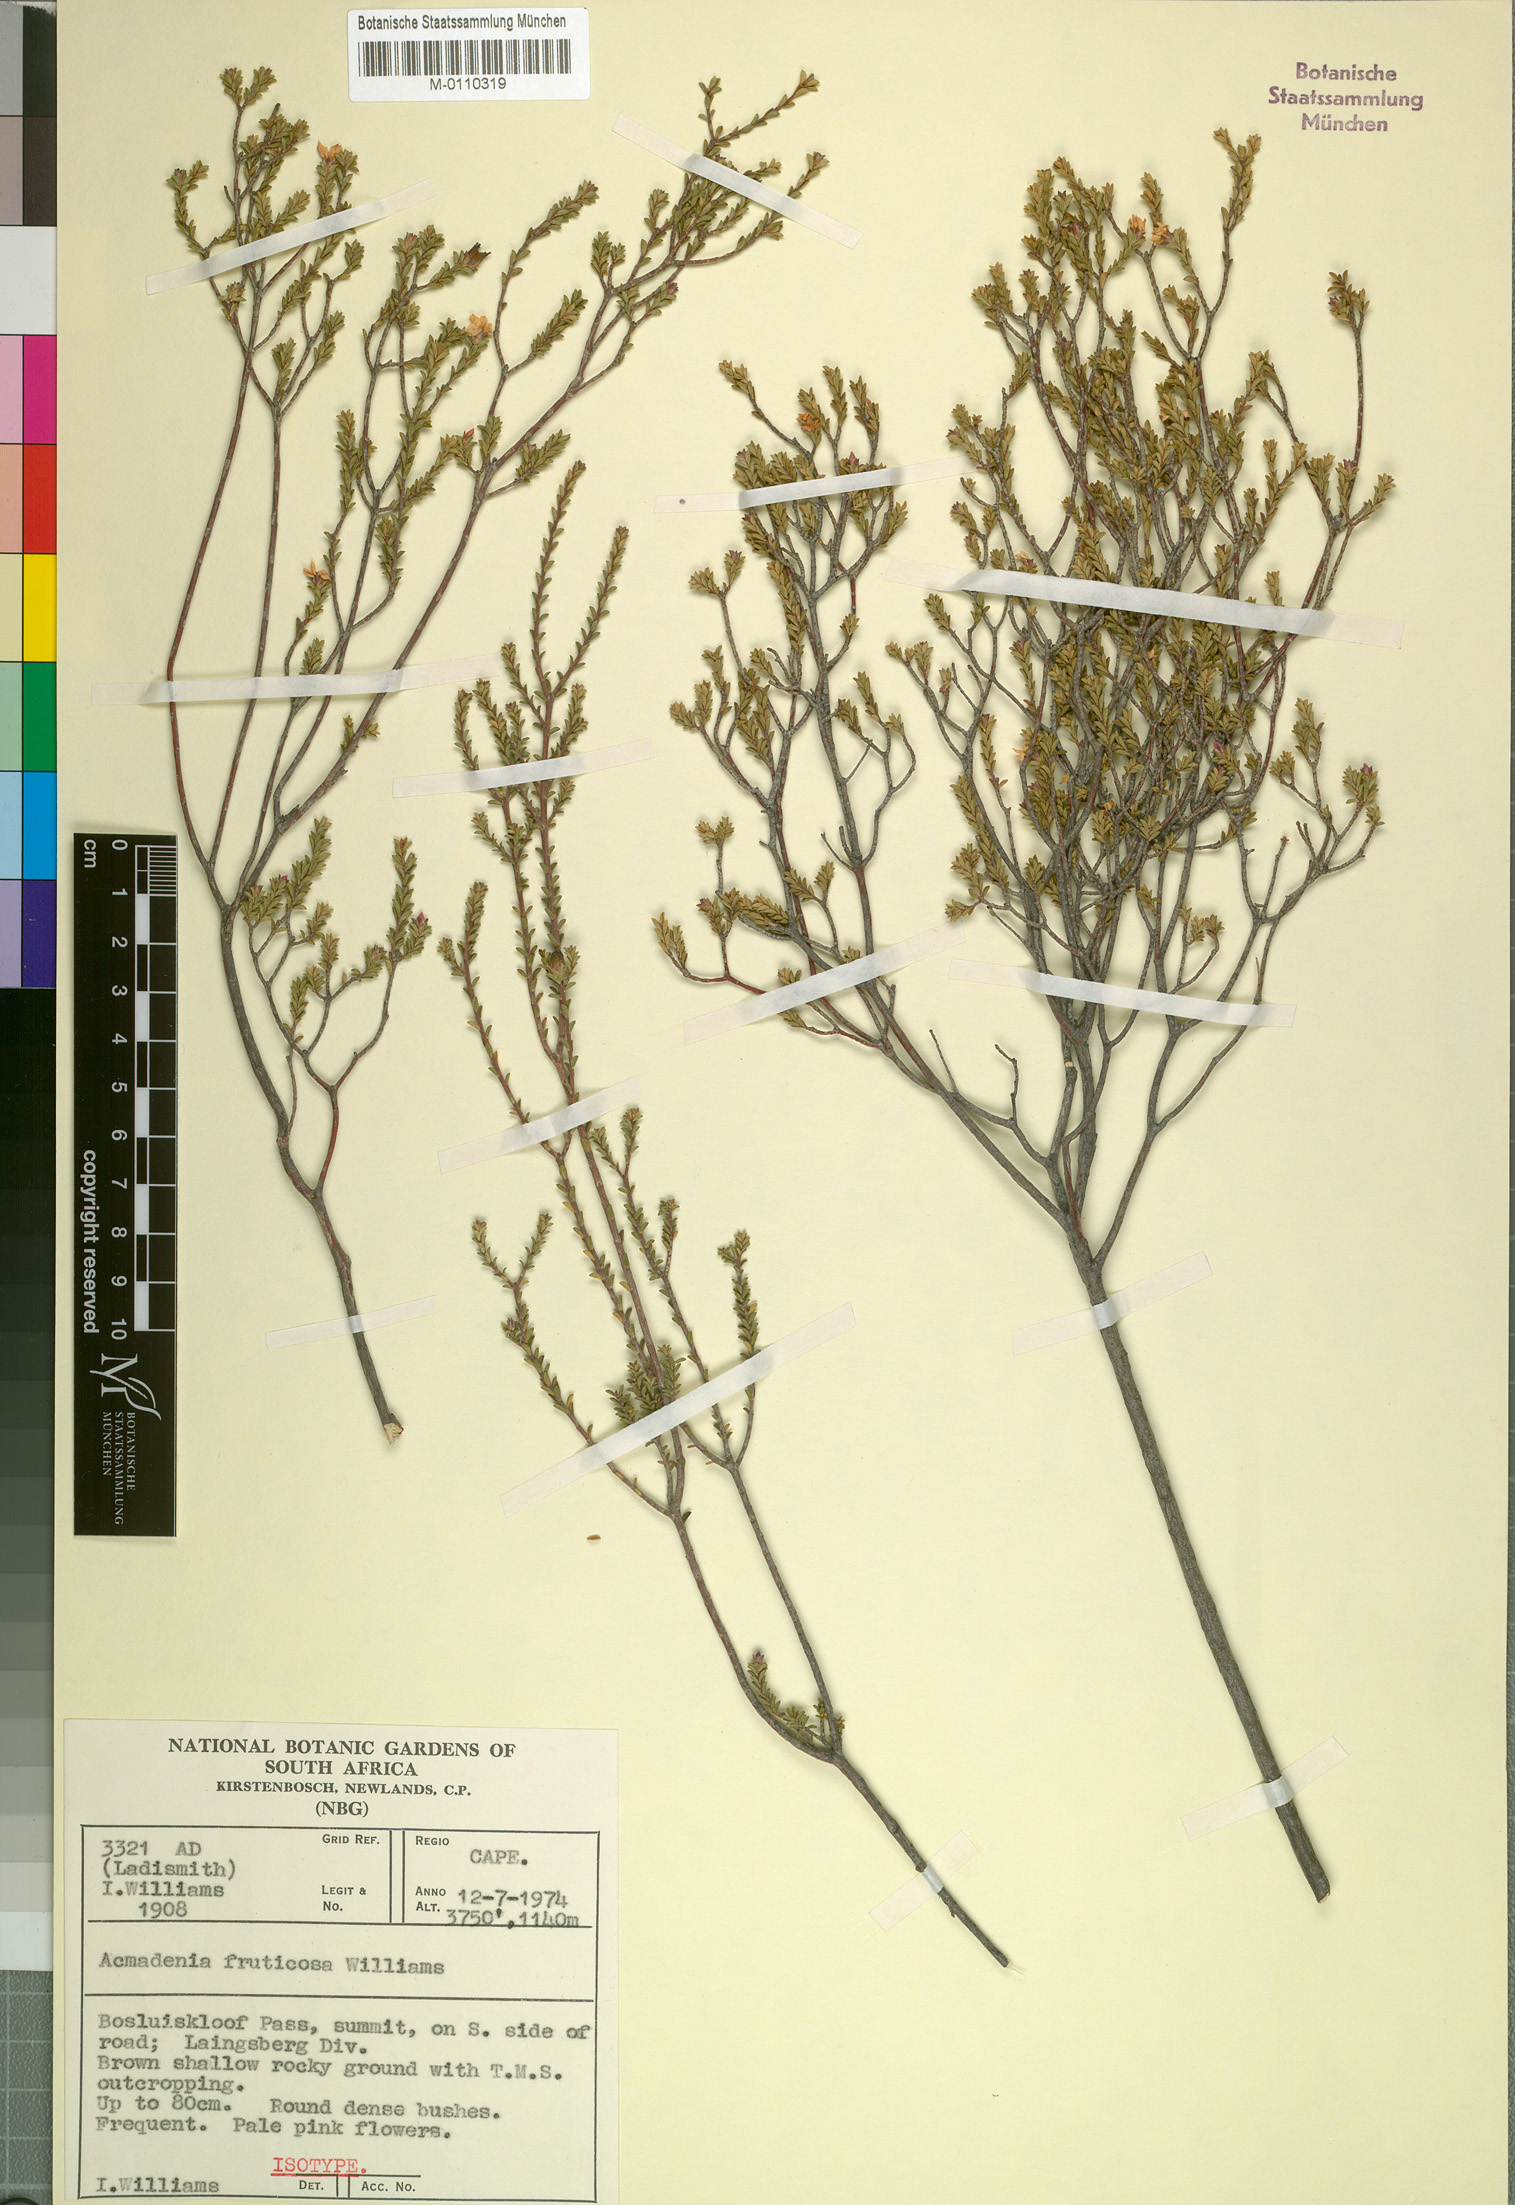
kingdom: Plantae
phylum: Tracheophyta
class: Magnoliopsida
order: Sapindales
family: Rutaceae
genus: Acmadenia
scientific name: Acmadenia fruticosa
